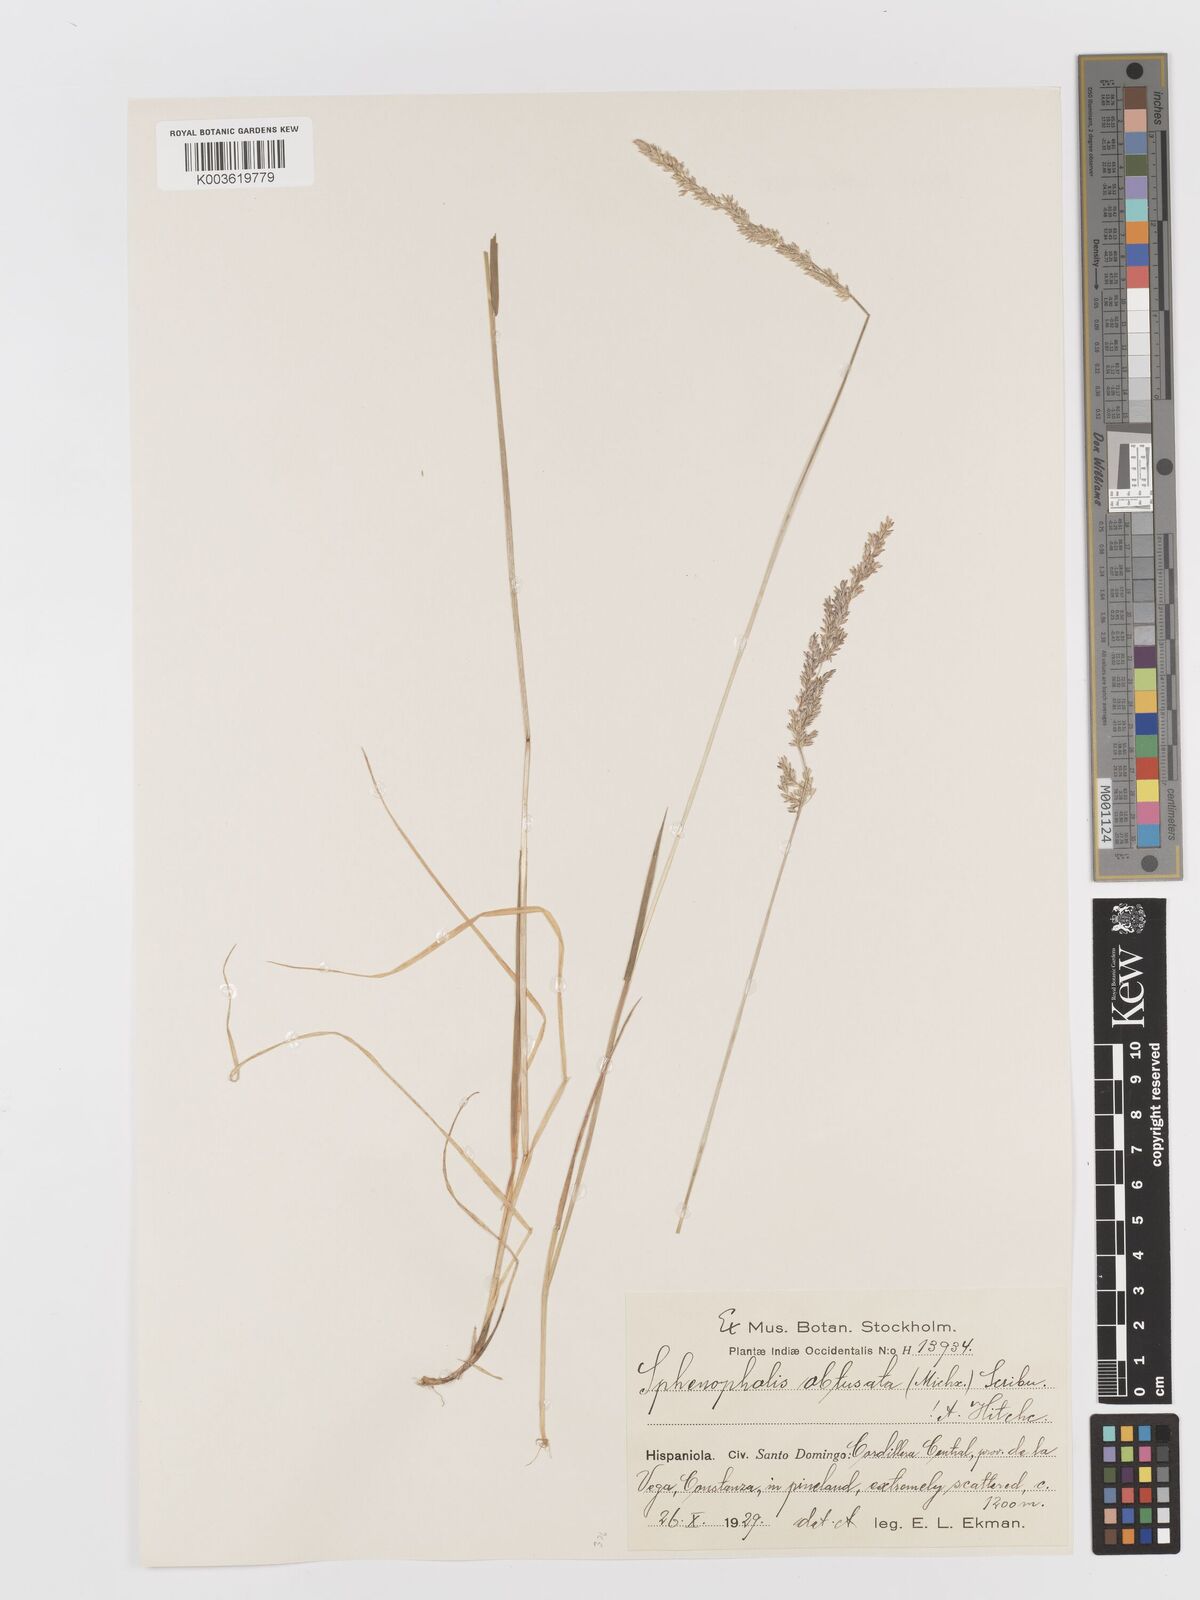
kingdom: Plantae
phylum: Tracheophyta
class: Liliopsida
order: Poales
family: Poaceae
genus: Sphenopholis
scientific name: Sphenopholis obtusata
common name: Prairie grass
